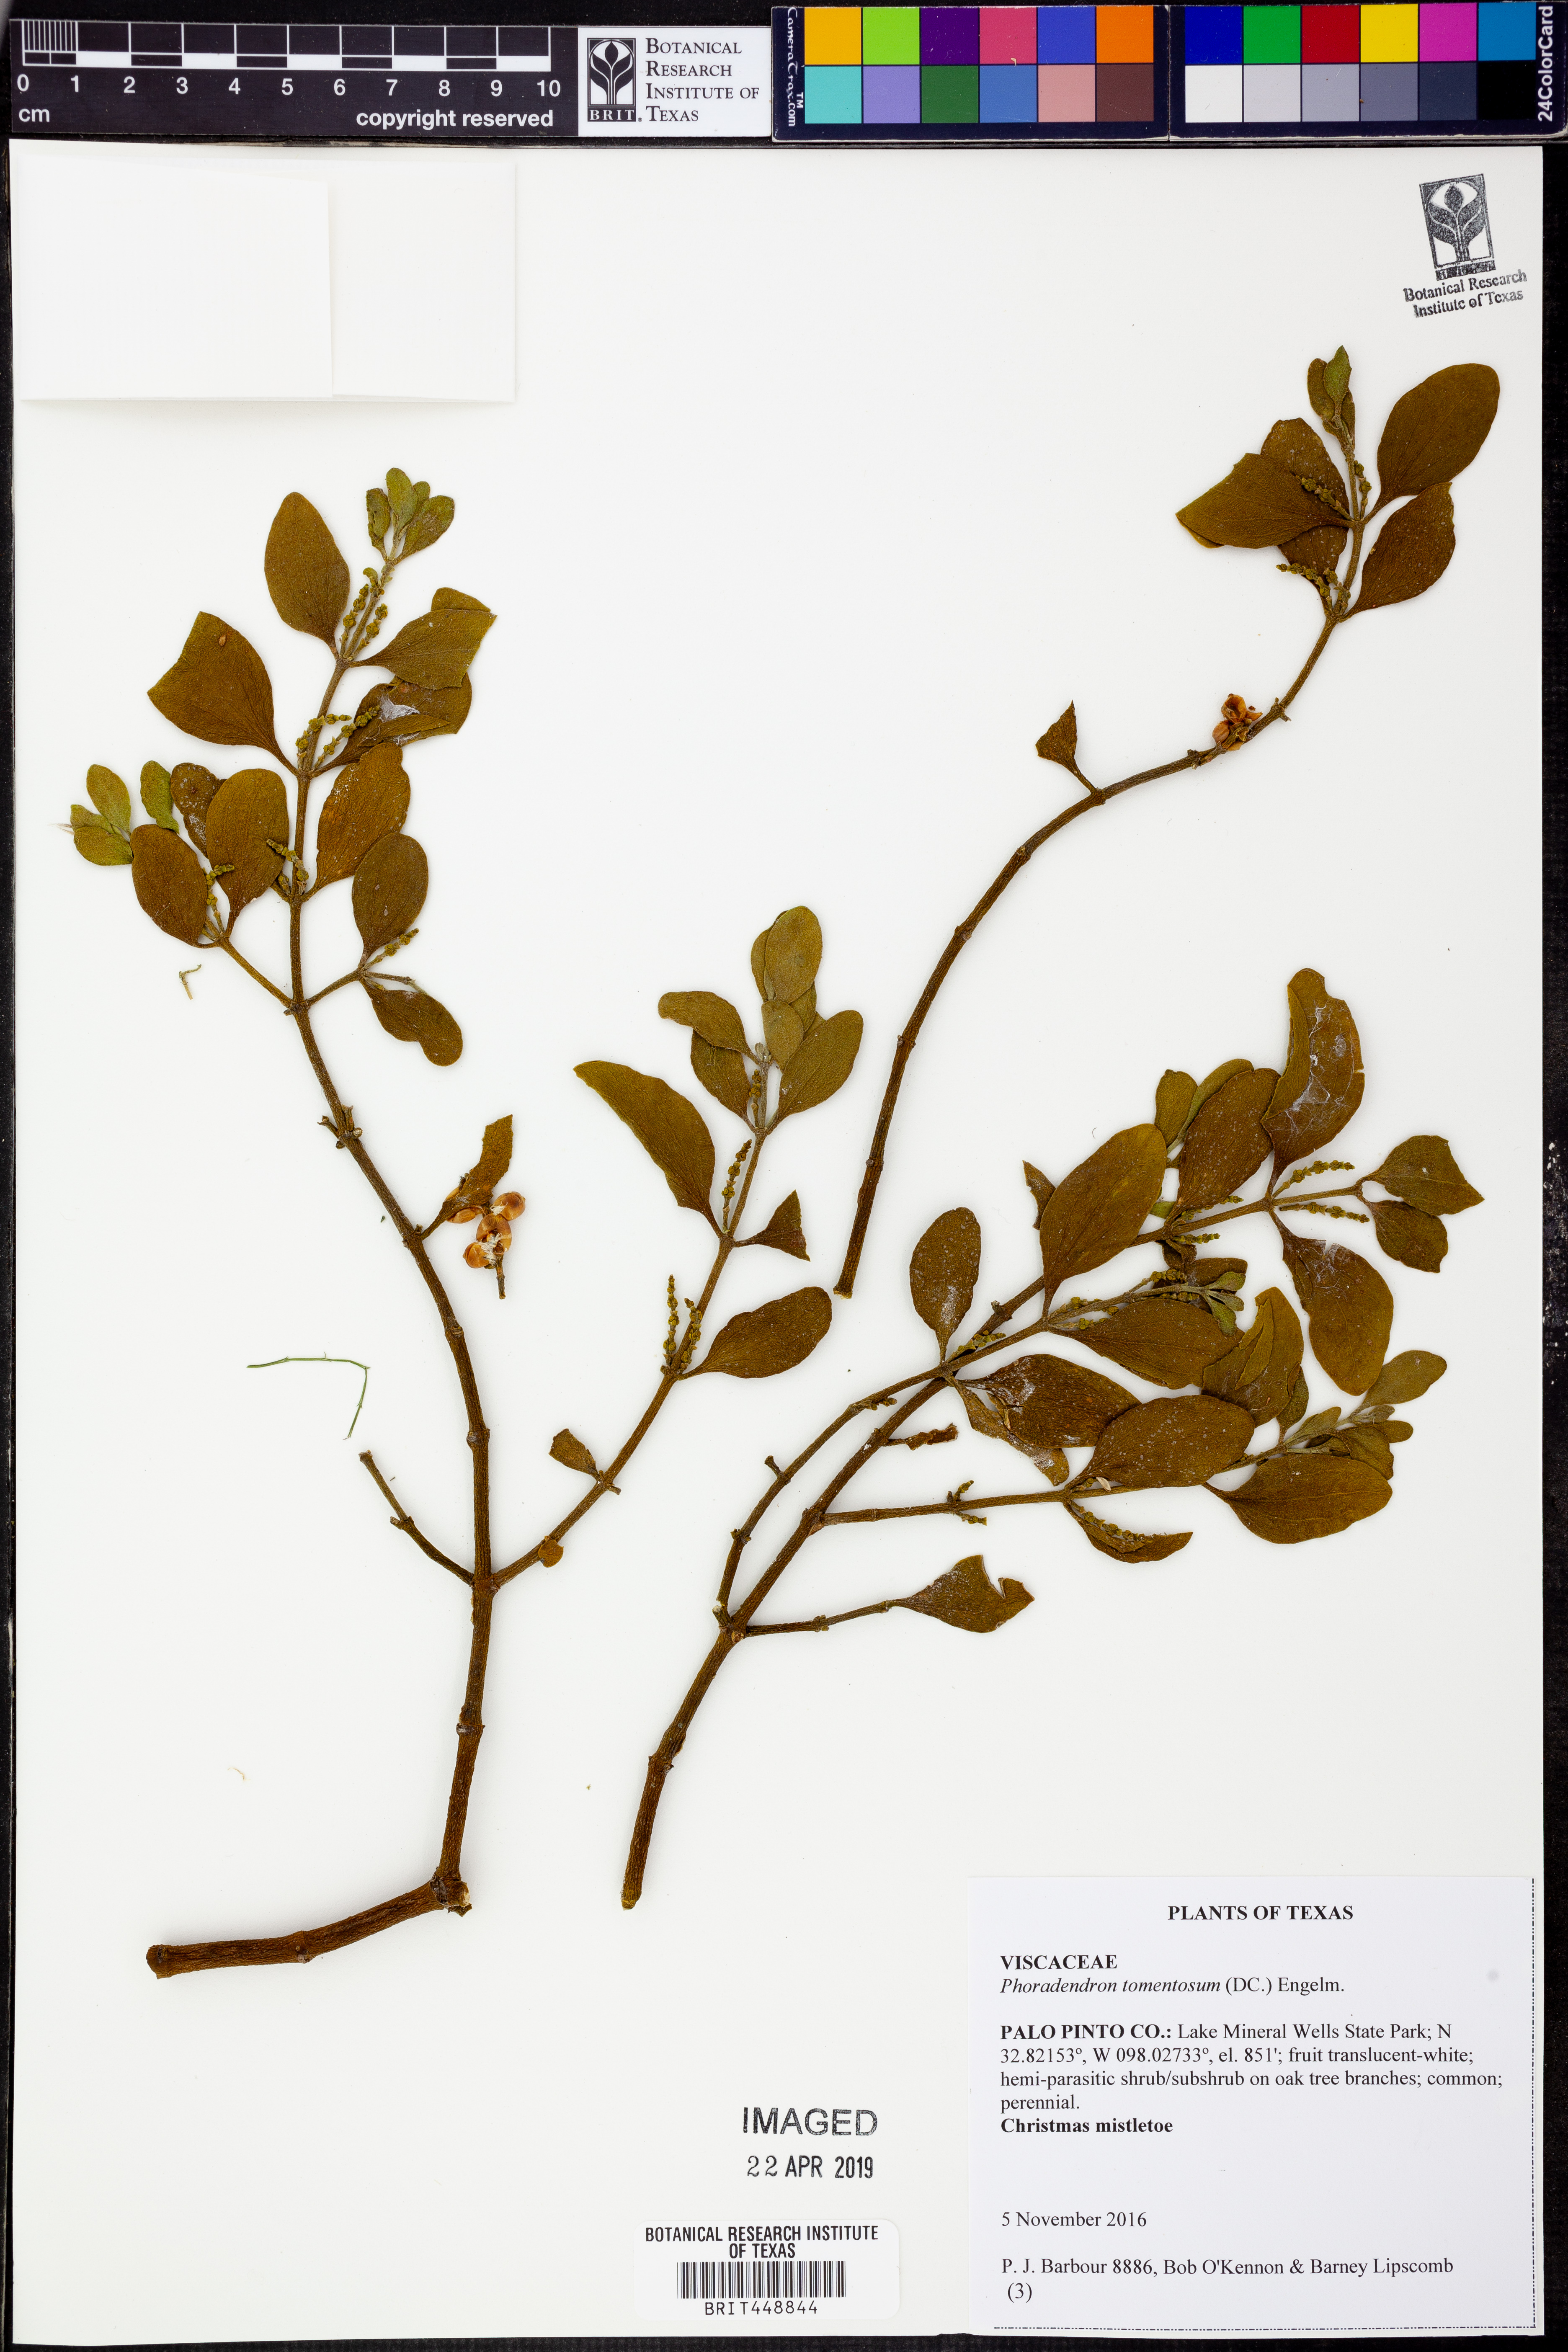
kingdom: Plantae
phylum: Tracheophyta
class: Magnoliopsida
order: Santalales
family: Viscaceae
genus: Phoradendron
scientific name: Phoradendron leucarpum
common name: Pacific mistletoe
